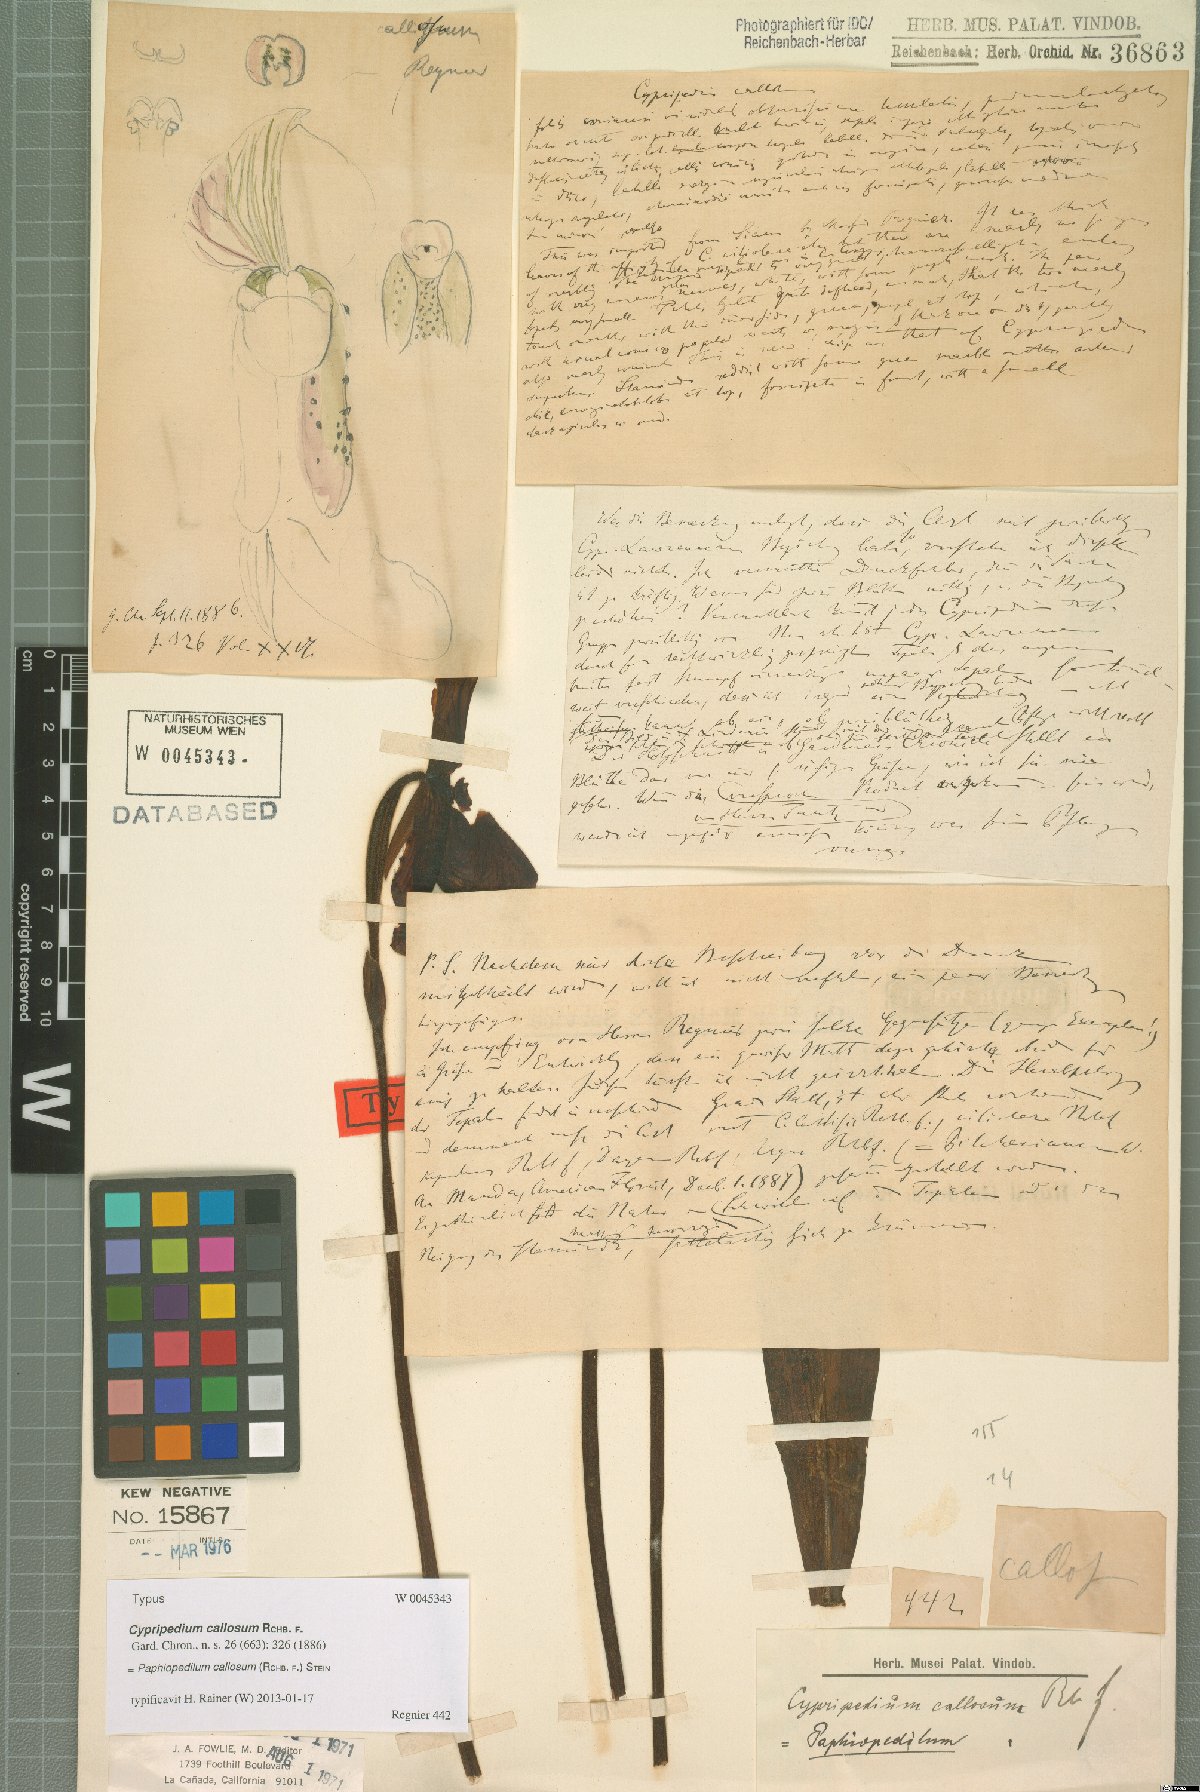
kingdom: Plantae
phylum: Tracheophyta
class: Liliopsida
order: Asparagales
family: Orchidaceae
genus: Paphiopedilum
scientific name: Paphiopedilum callosum
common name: Callus paphiopedilum
